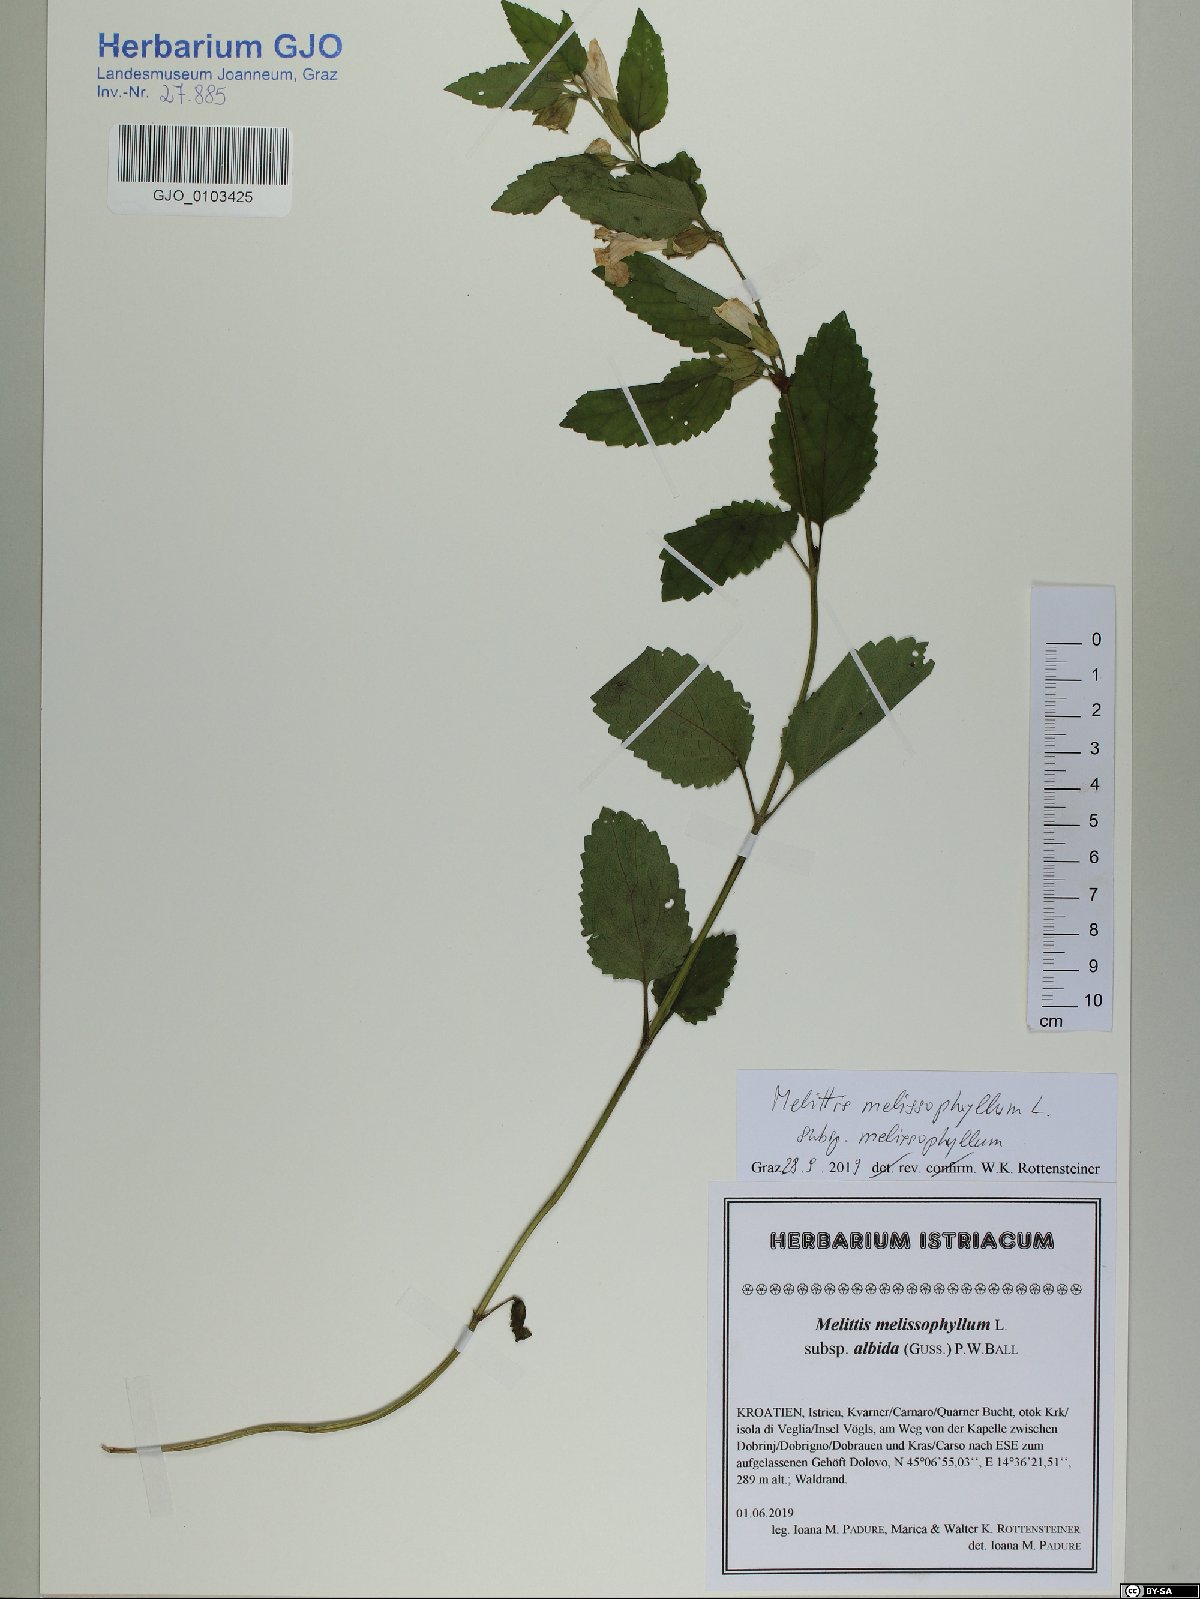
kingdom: Plantae
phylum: Tracheophyta
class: Magnoliopsida
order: Lamiales
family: Lamiaceae
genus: Melittis
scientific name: Melittis melissophyllum
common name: Bastard balm
